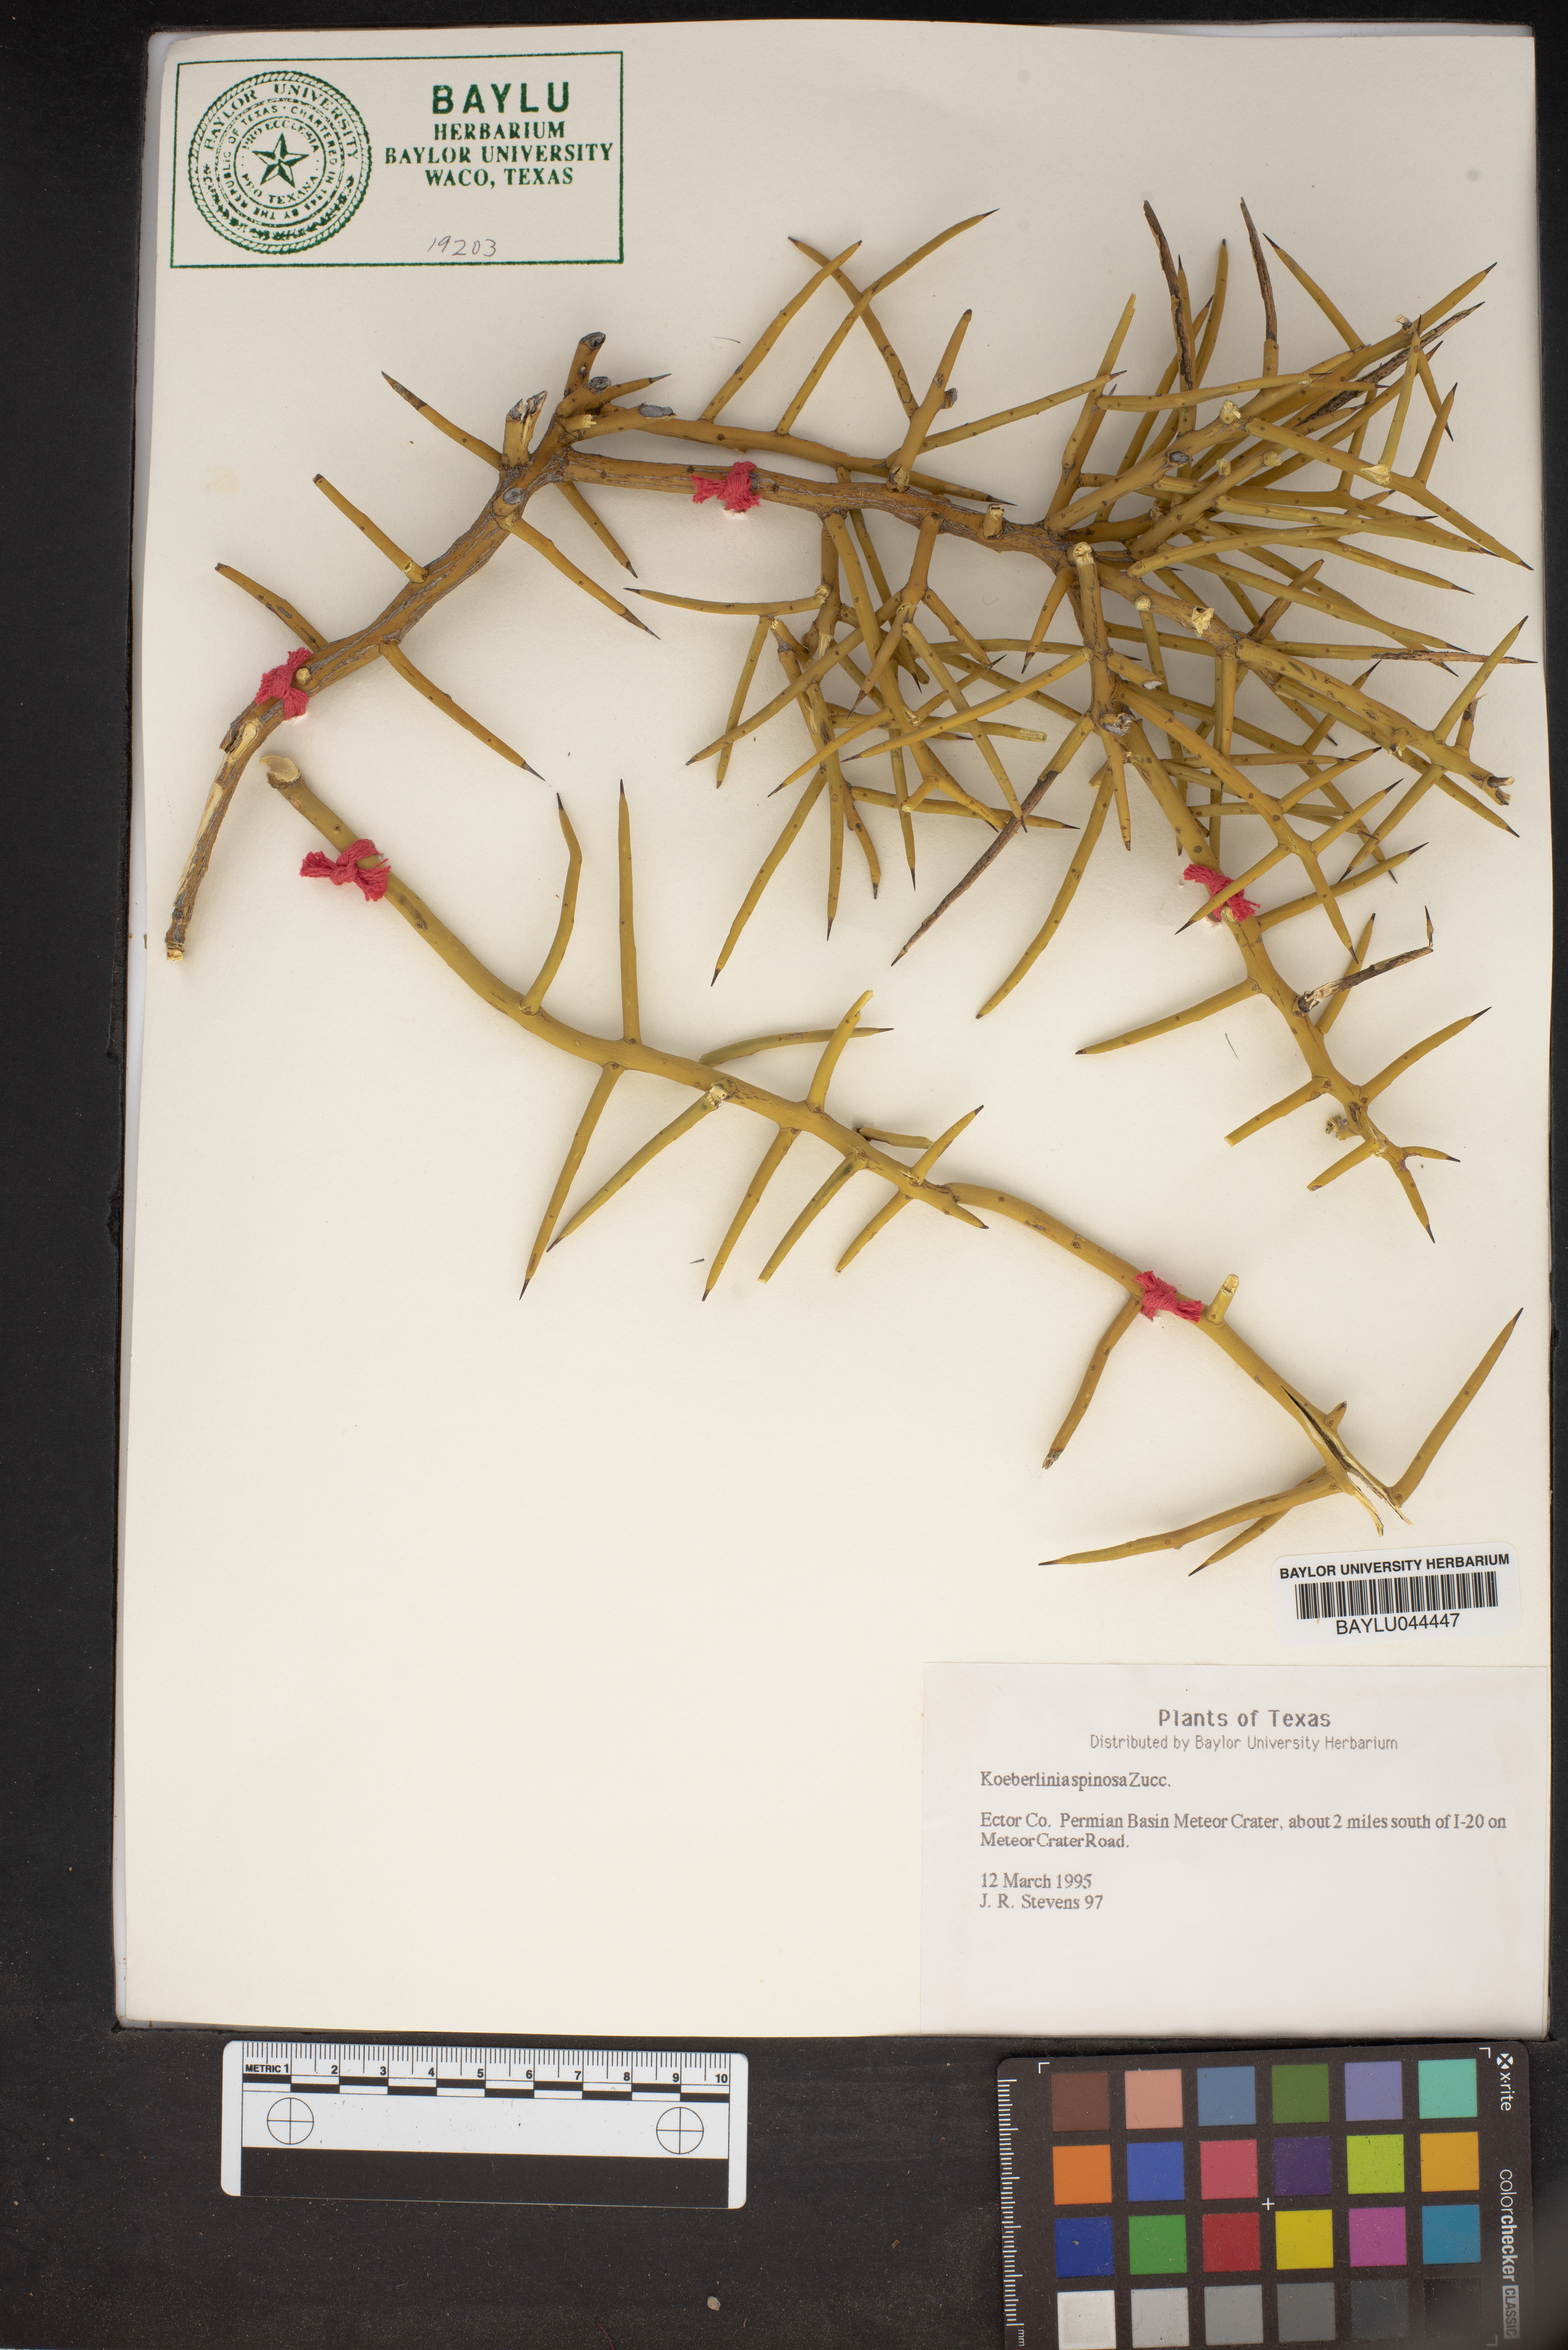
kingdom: Plantae
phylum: Tracheophyta
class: Magnoliopsida
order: Brassicales
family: Koeberliniaceae
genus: Koeberlinia
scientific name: Koeberlinia spinosa
